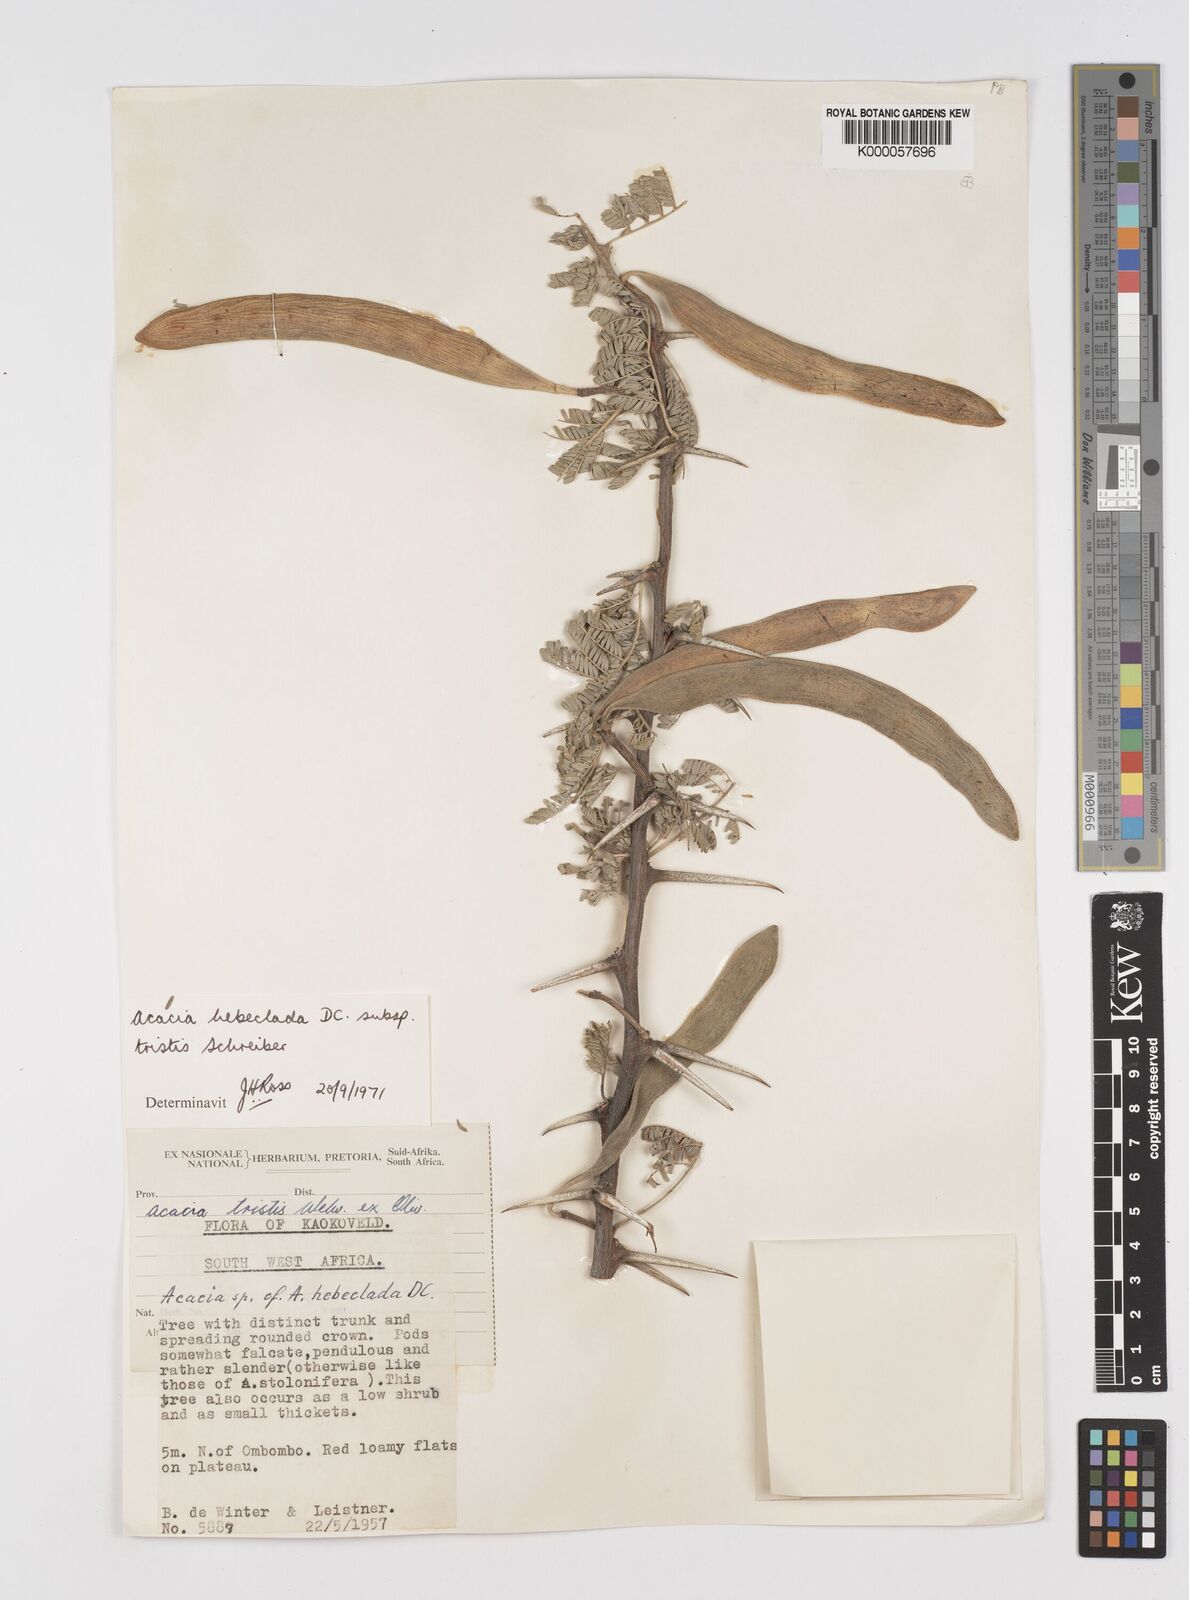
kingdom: Plantae
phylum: Tracheophyta
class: Magnoliopsida
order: Fabales
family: Fabaceae
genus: Vachellia
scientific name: Vachellia hebeclada
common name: Candle thorn
